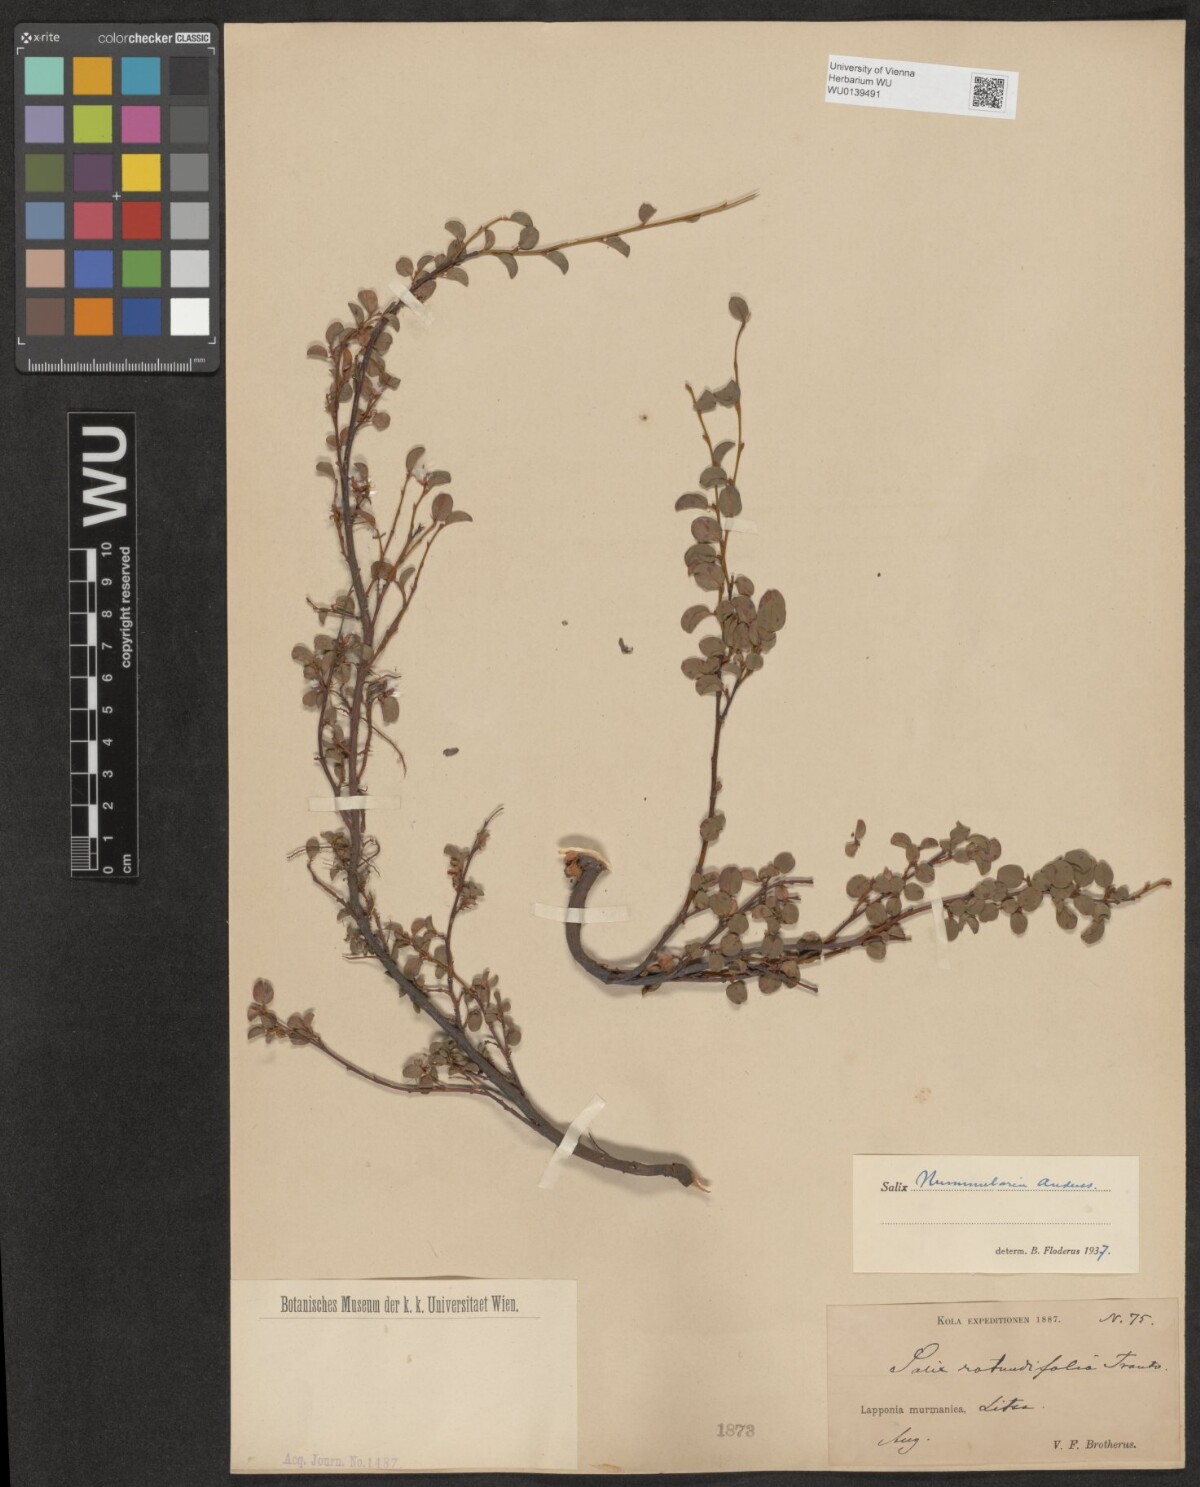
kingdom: Plantae
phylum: Tracheophyta
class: Magnoliopsida
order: Malpighiales
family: Salicaceae
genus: Salix
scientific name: Salix rotundifolia
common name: Least willow
